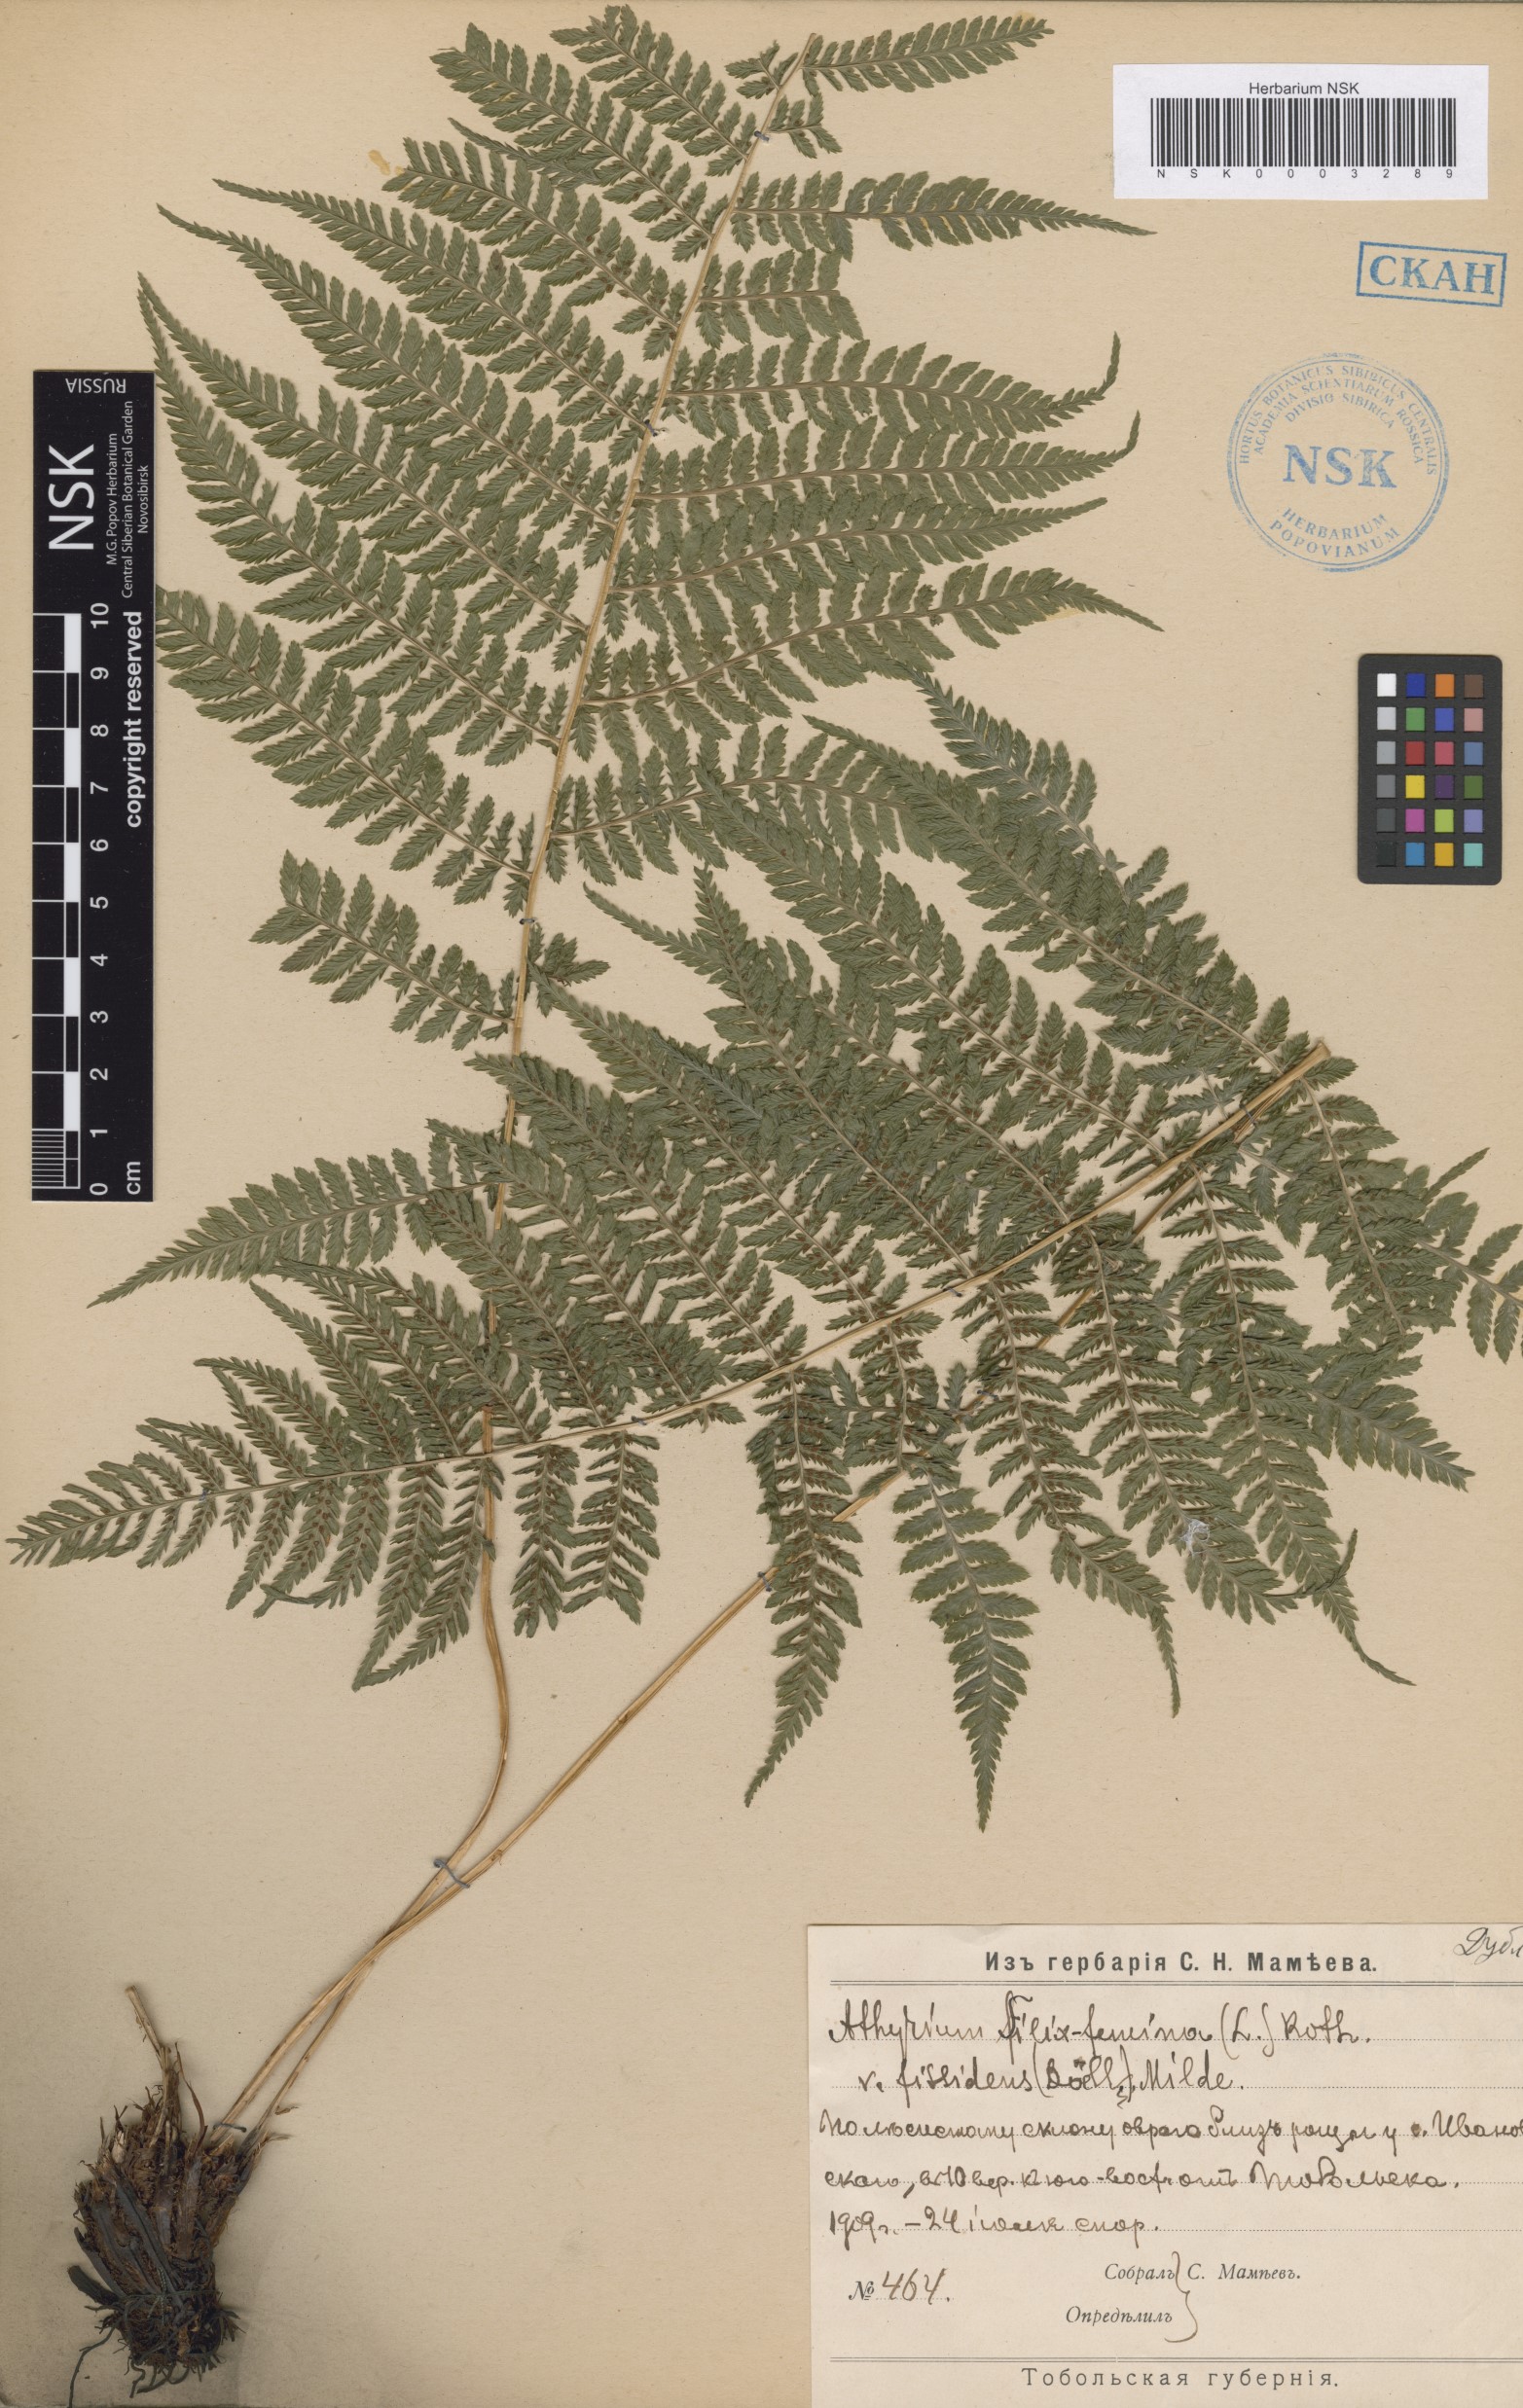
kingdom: Plantae
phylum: Tracheophyta
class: Polypodiopsida
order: Polypodiales
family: Athyriaceae
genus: Athyrium
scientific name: Athyrium filix-femina
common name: Lady fern
